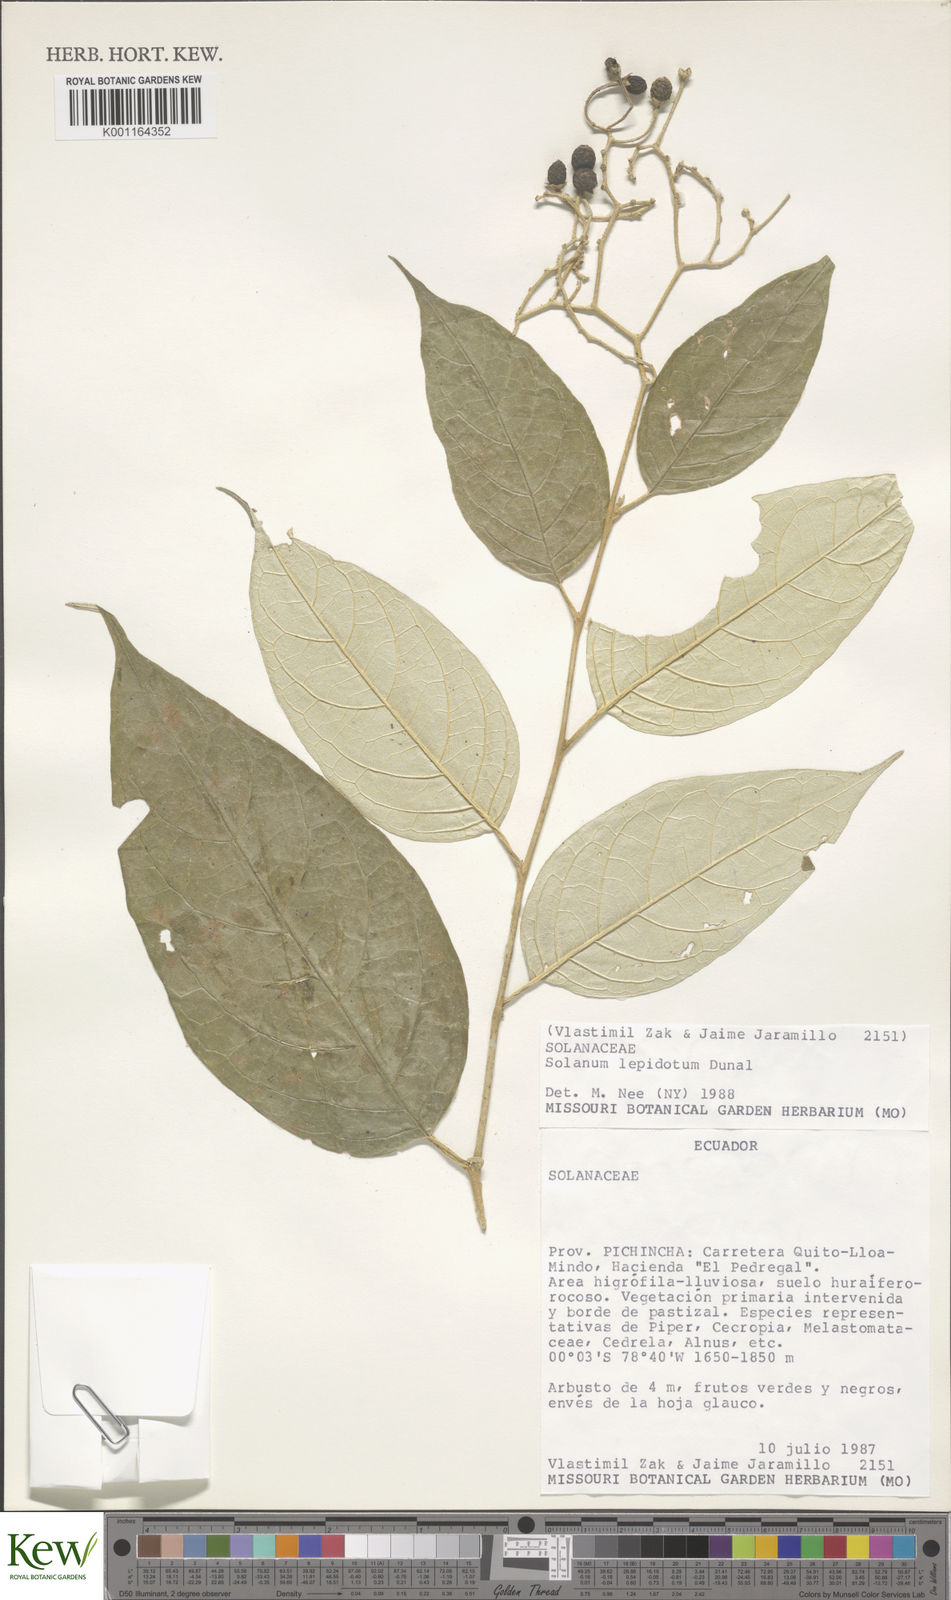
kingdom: Plantae
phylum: Tracheophyta
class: Magnoliopsida
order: Solanales
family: Solanaceae
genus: Solanum
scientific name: Solanum lepidotum
